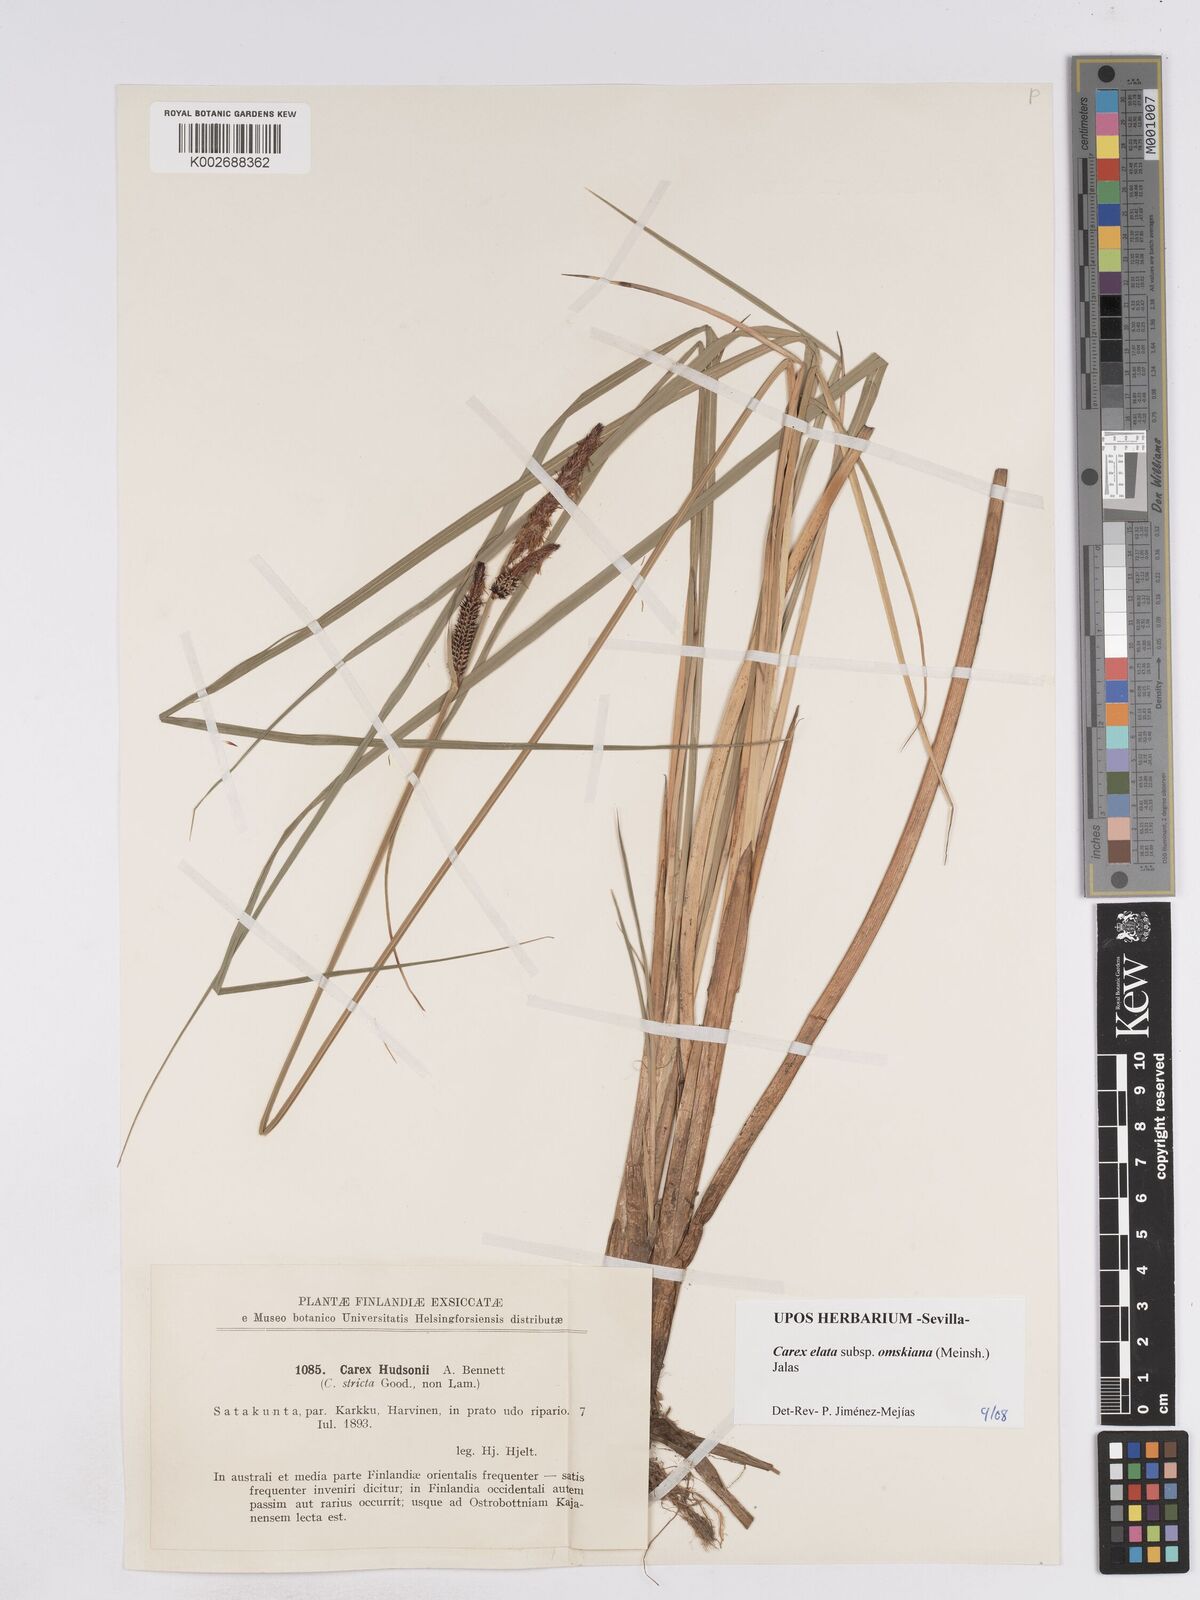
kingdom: Plantae
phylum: Tracheophyta
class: Liliopsida
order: Poales
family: Cyperaceae
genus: Carex
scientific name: Carex elata
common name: Tufted sedge
